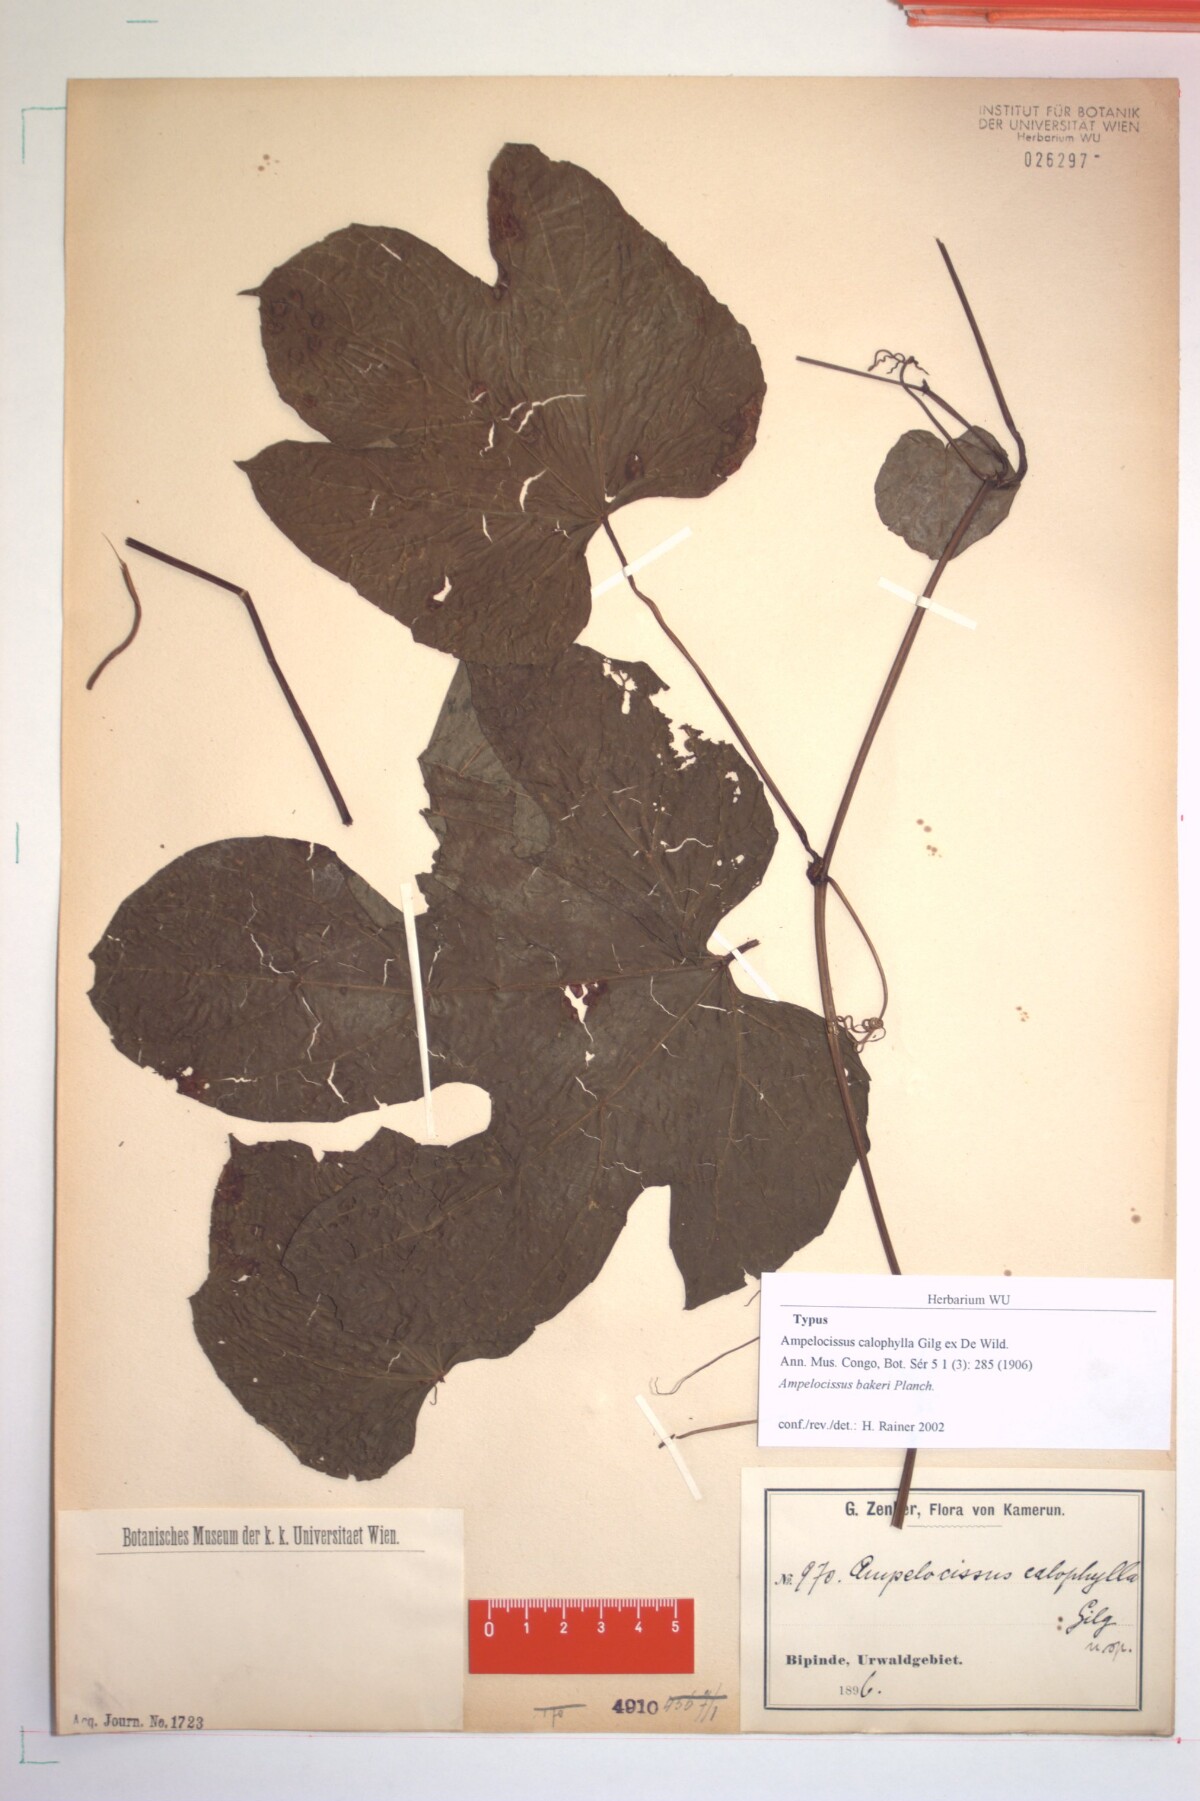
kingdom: Plantae
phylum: Tracheophyta
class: Magnoliopsida
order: Vitales
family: Vitaceae
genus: Ampelocissus
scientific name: Ampelocissus abyssinica
